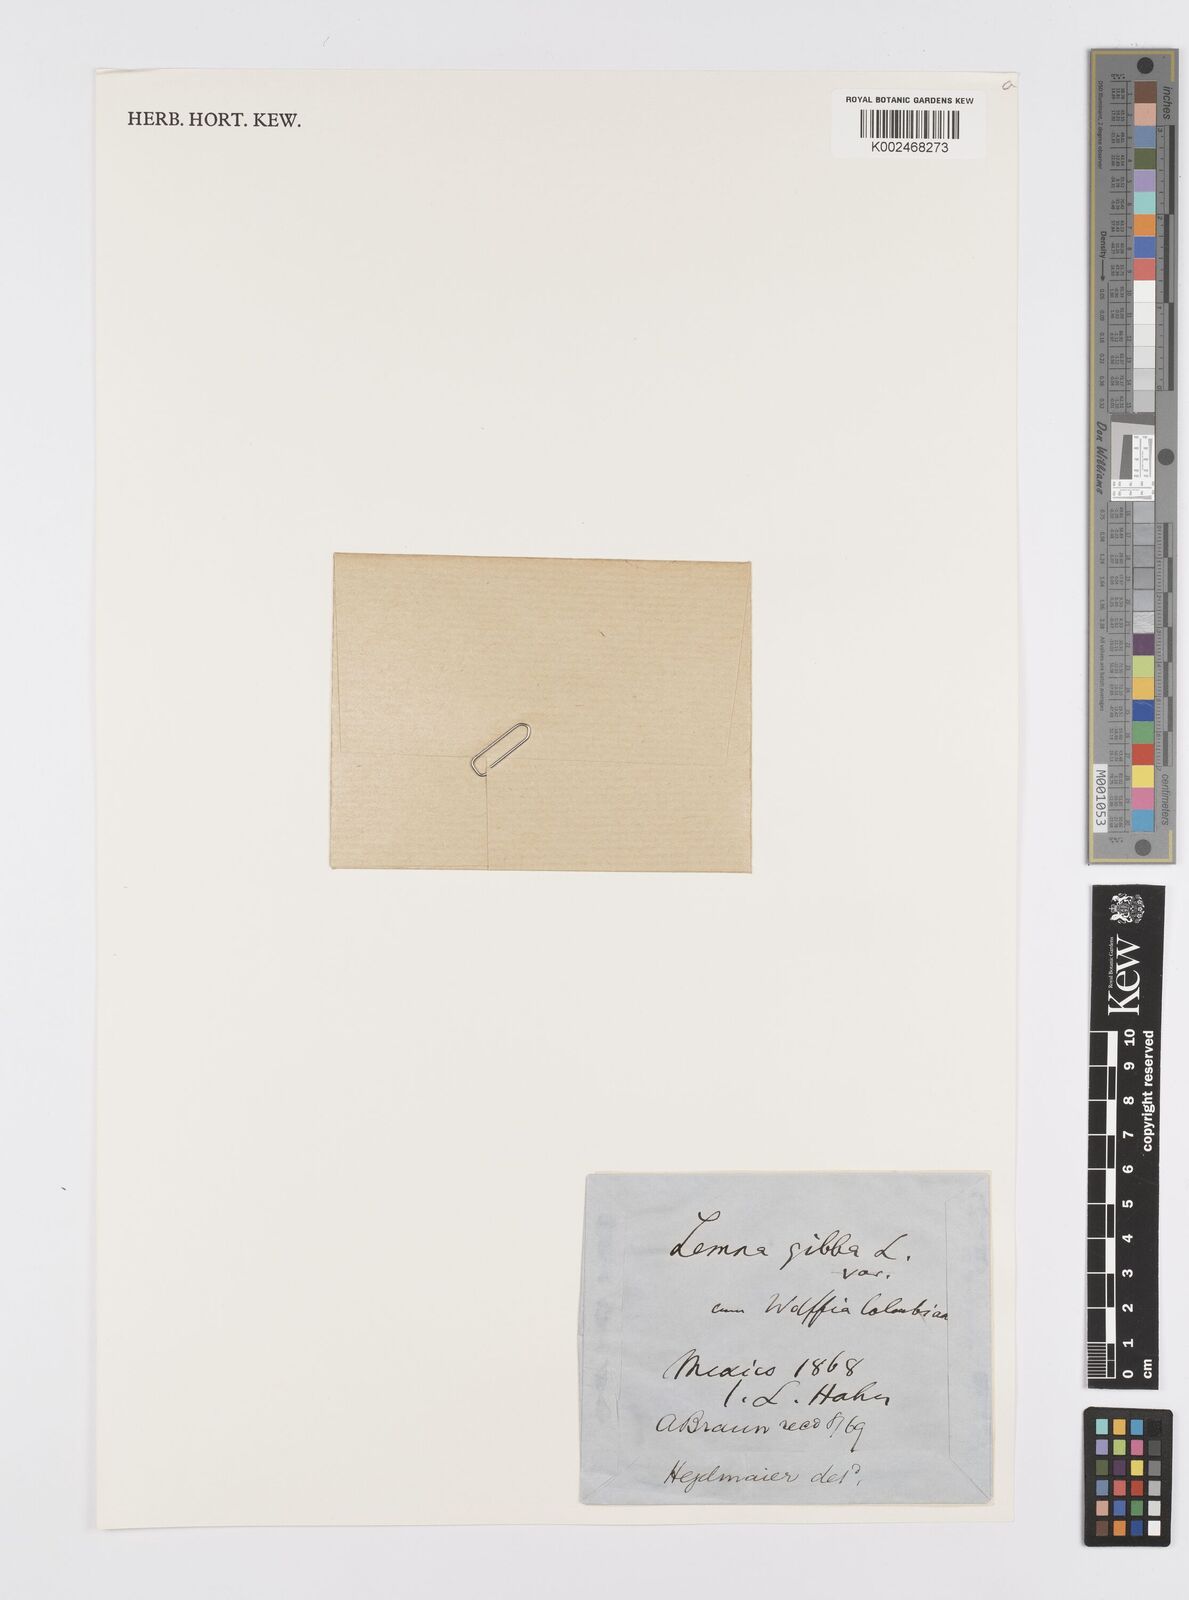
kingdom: Plantae
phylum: Tracheophyta
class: Liliopsida
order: Alismatales
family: Araceae
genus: Lemna
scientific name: Lemna gibba
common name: Fat duckweed
